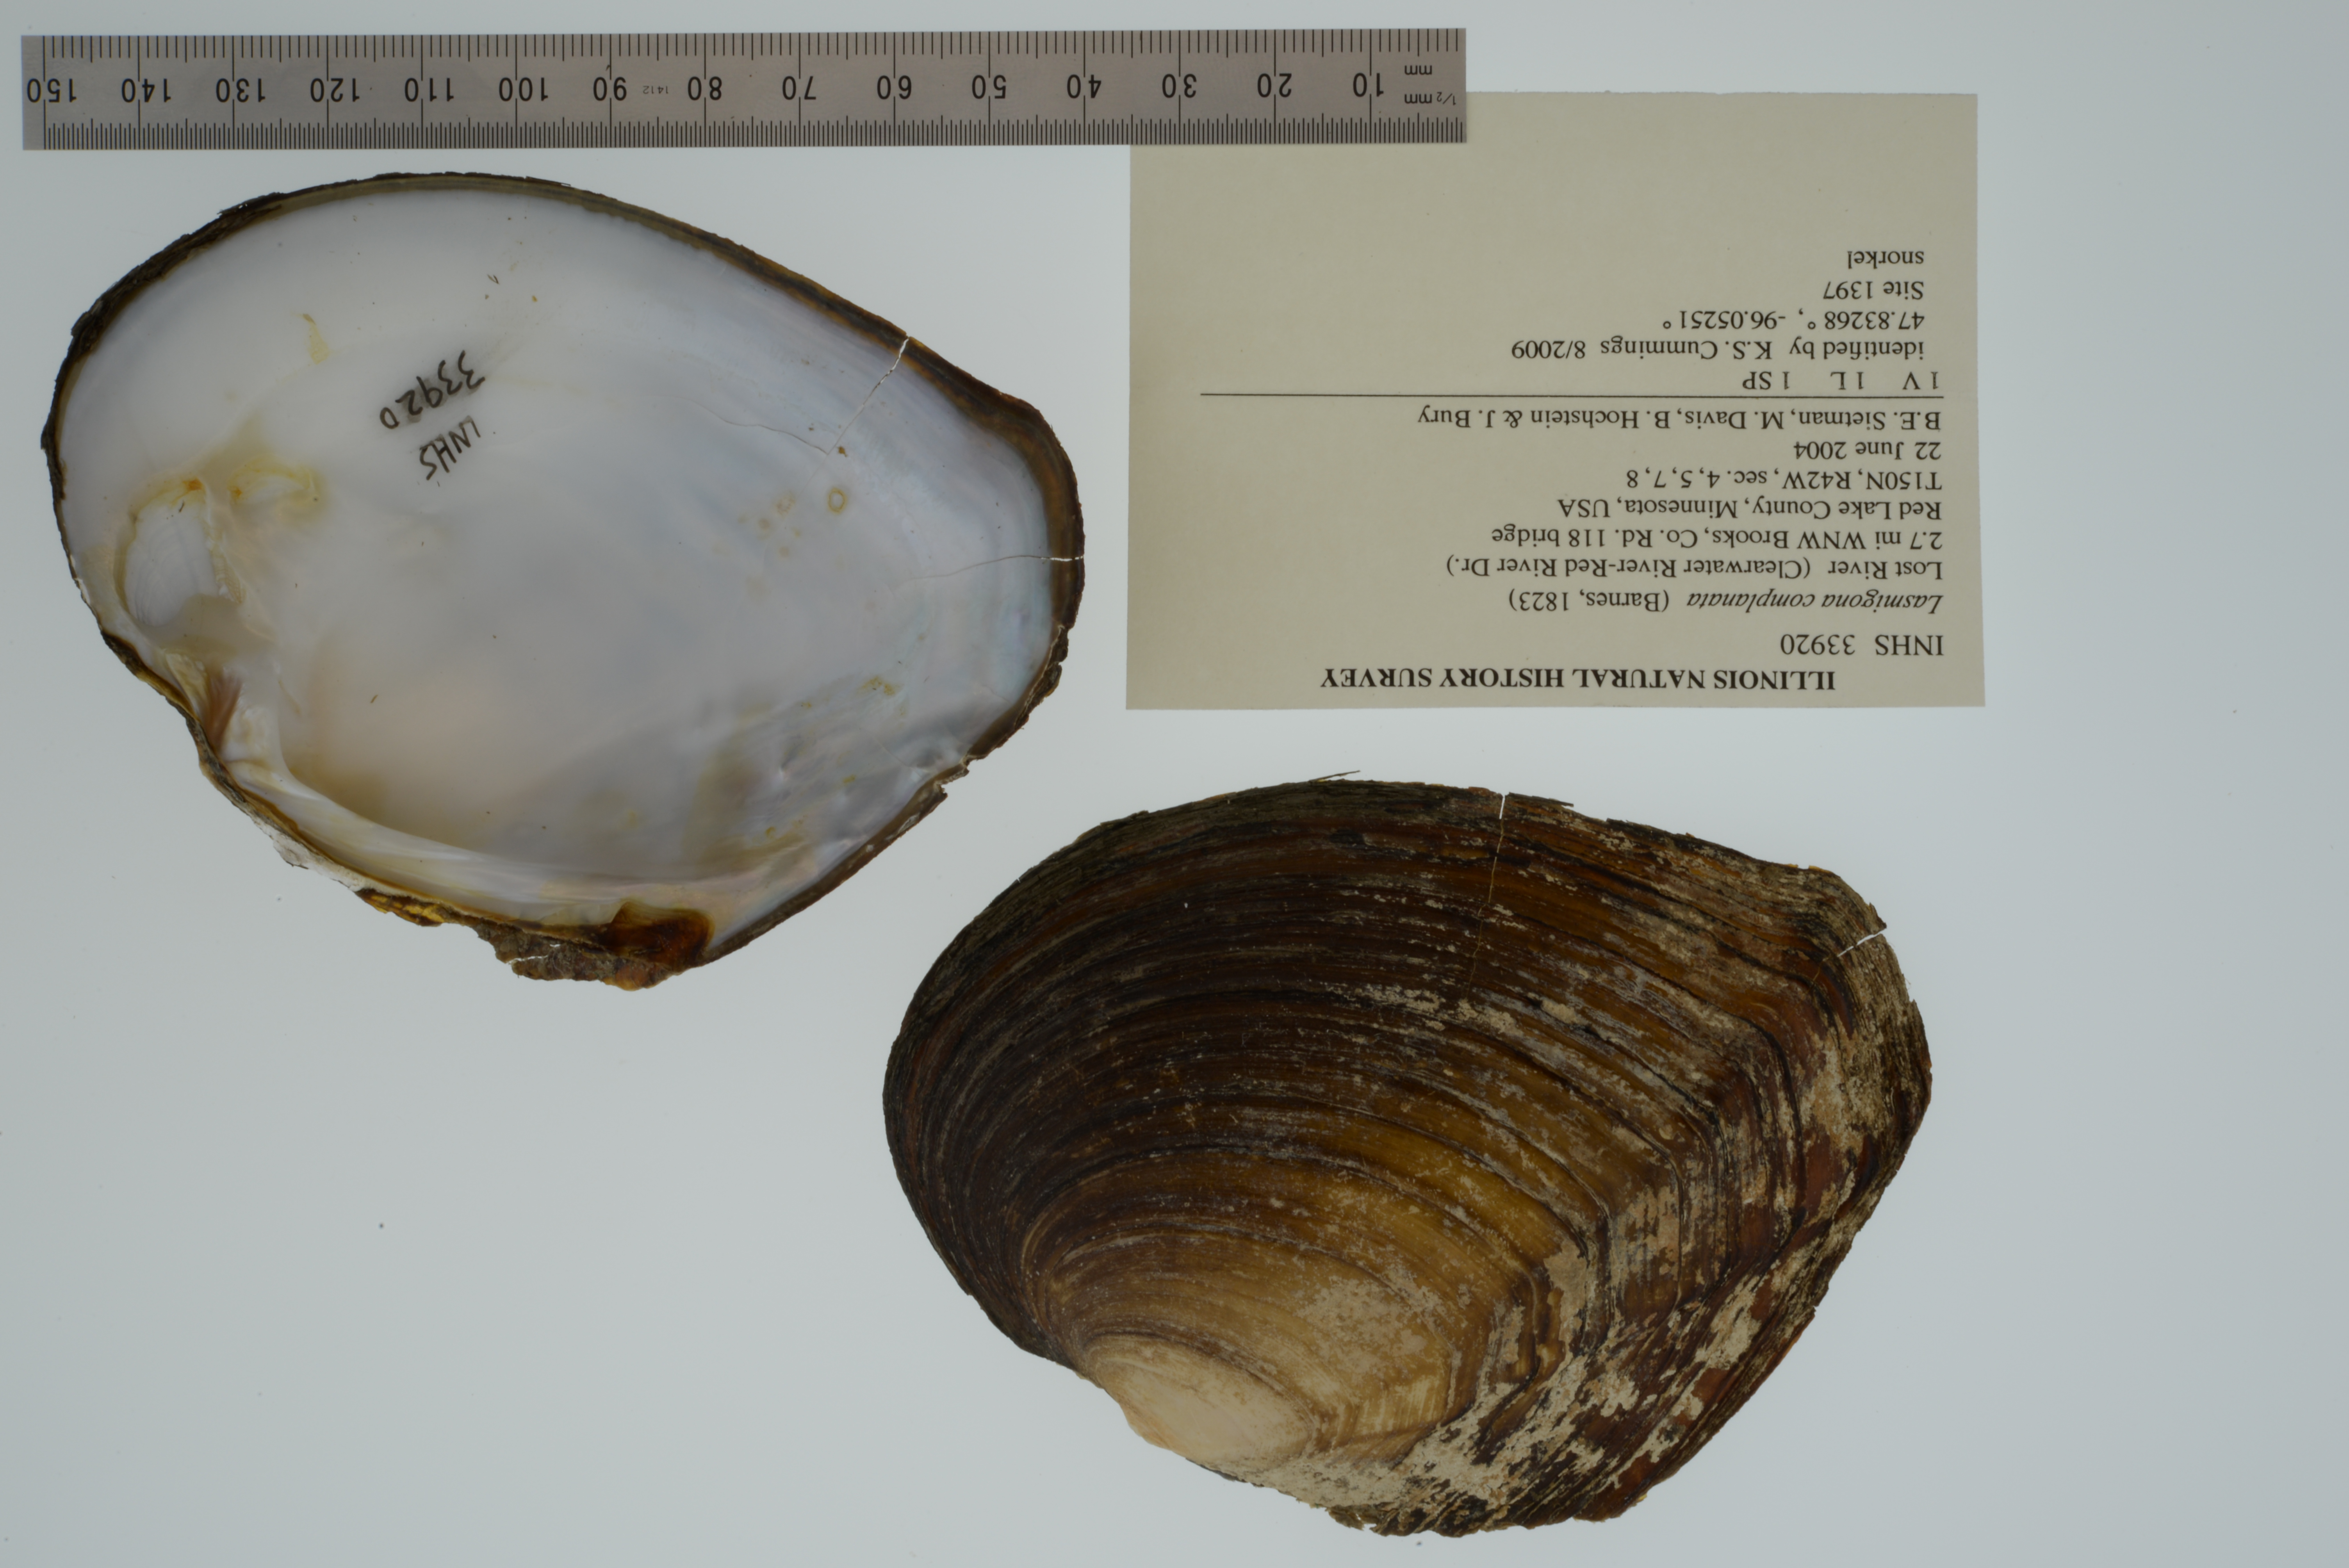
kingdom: Animalia
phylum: Mollusca
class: Bivalvia
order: Unionida
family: Unionidae
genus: Lasmigona
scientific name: Lasmigona complanata
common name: White heelsplitter
